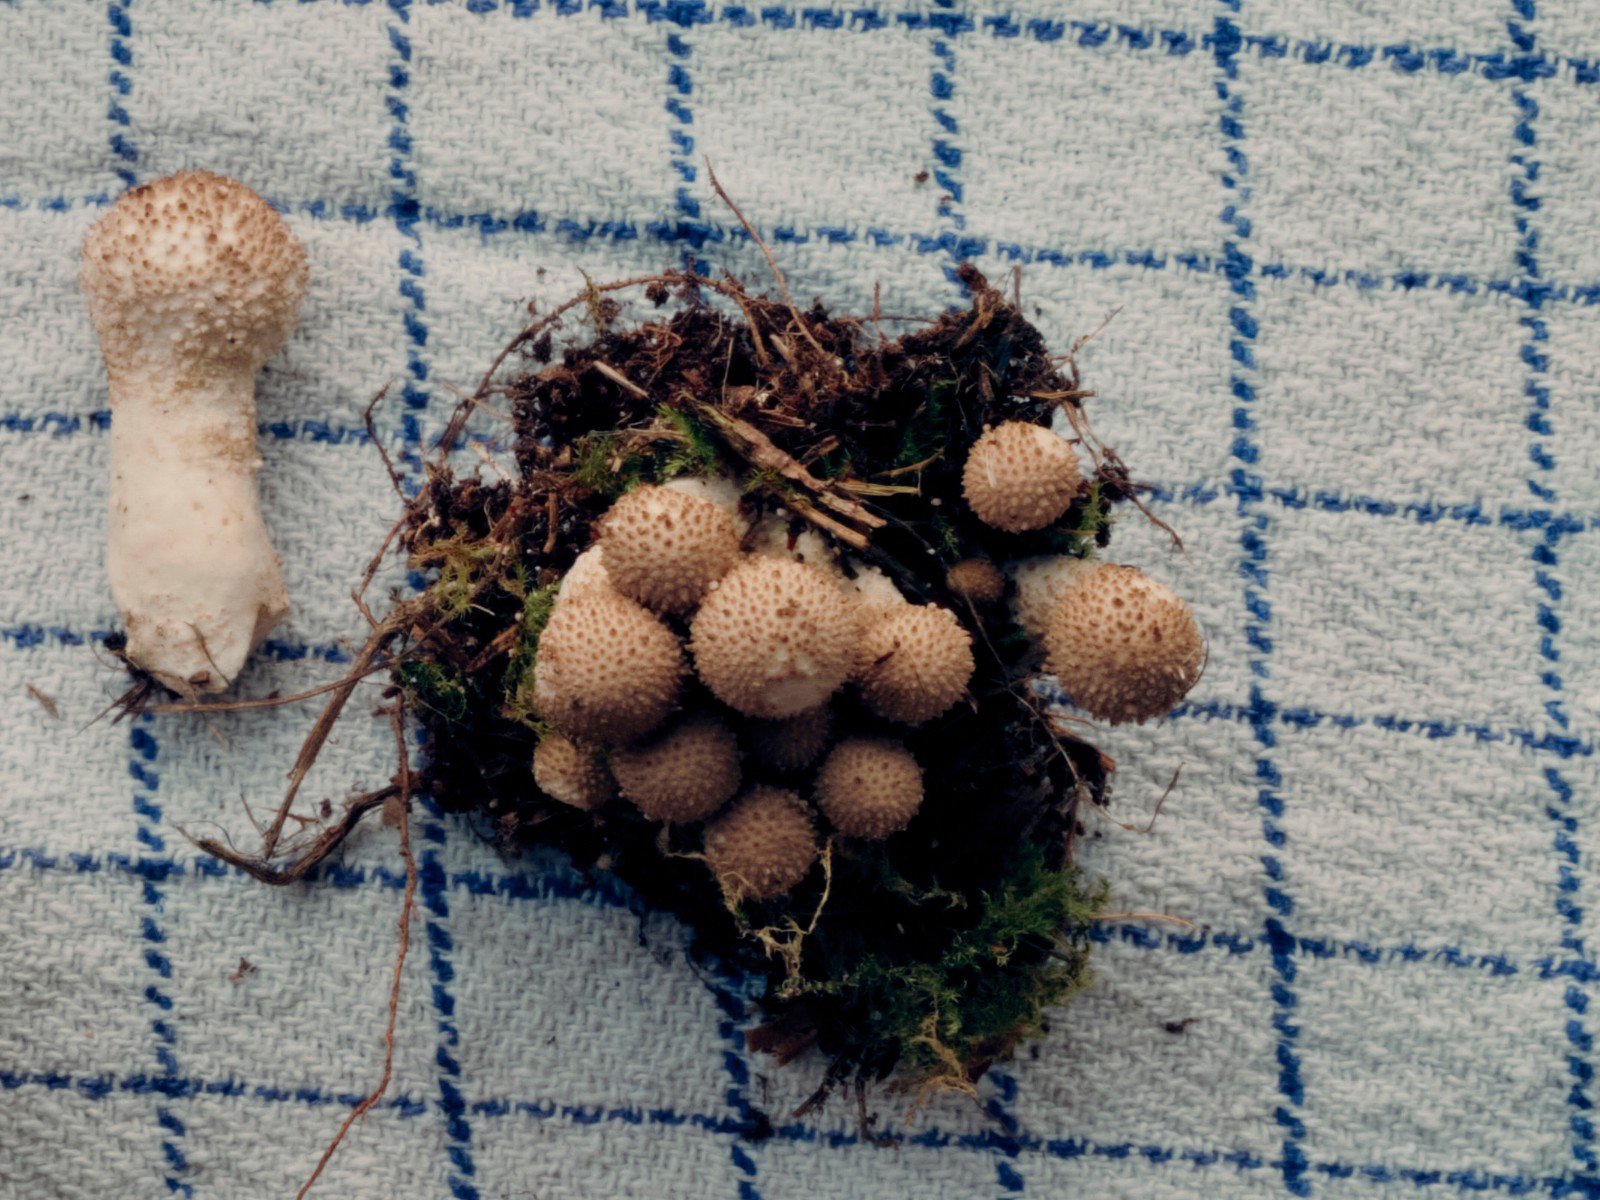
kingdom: Fungi
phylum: Basidiomycota
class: Agaricomycetes
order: Agaricales
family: Agaricaceae
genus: Lycoperdon
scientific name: Lycoperdon
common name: støvbold
